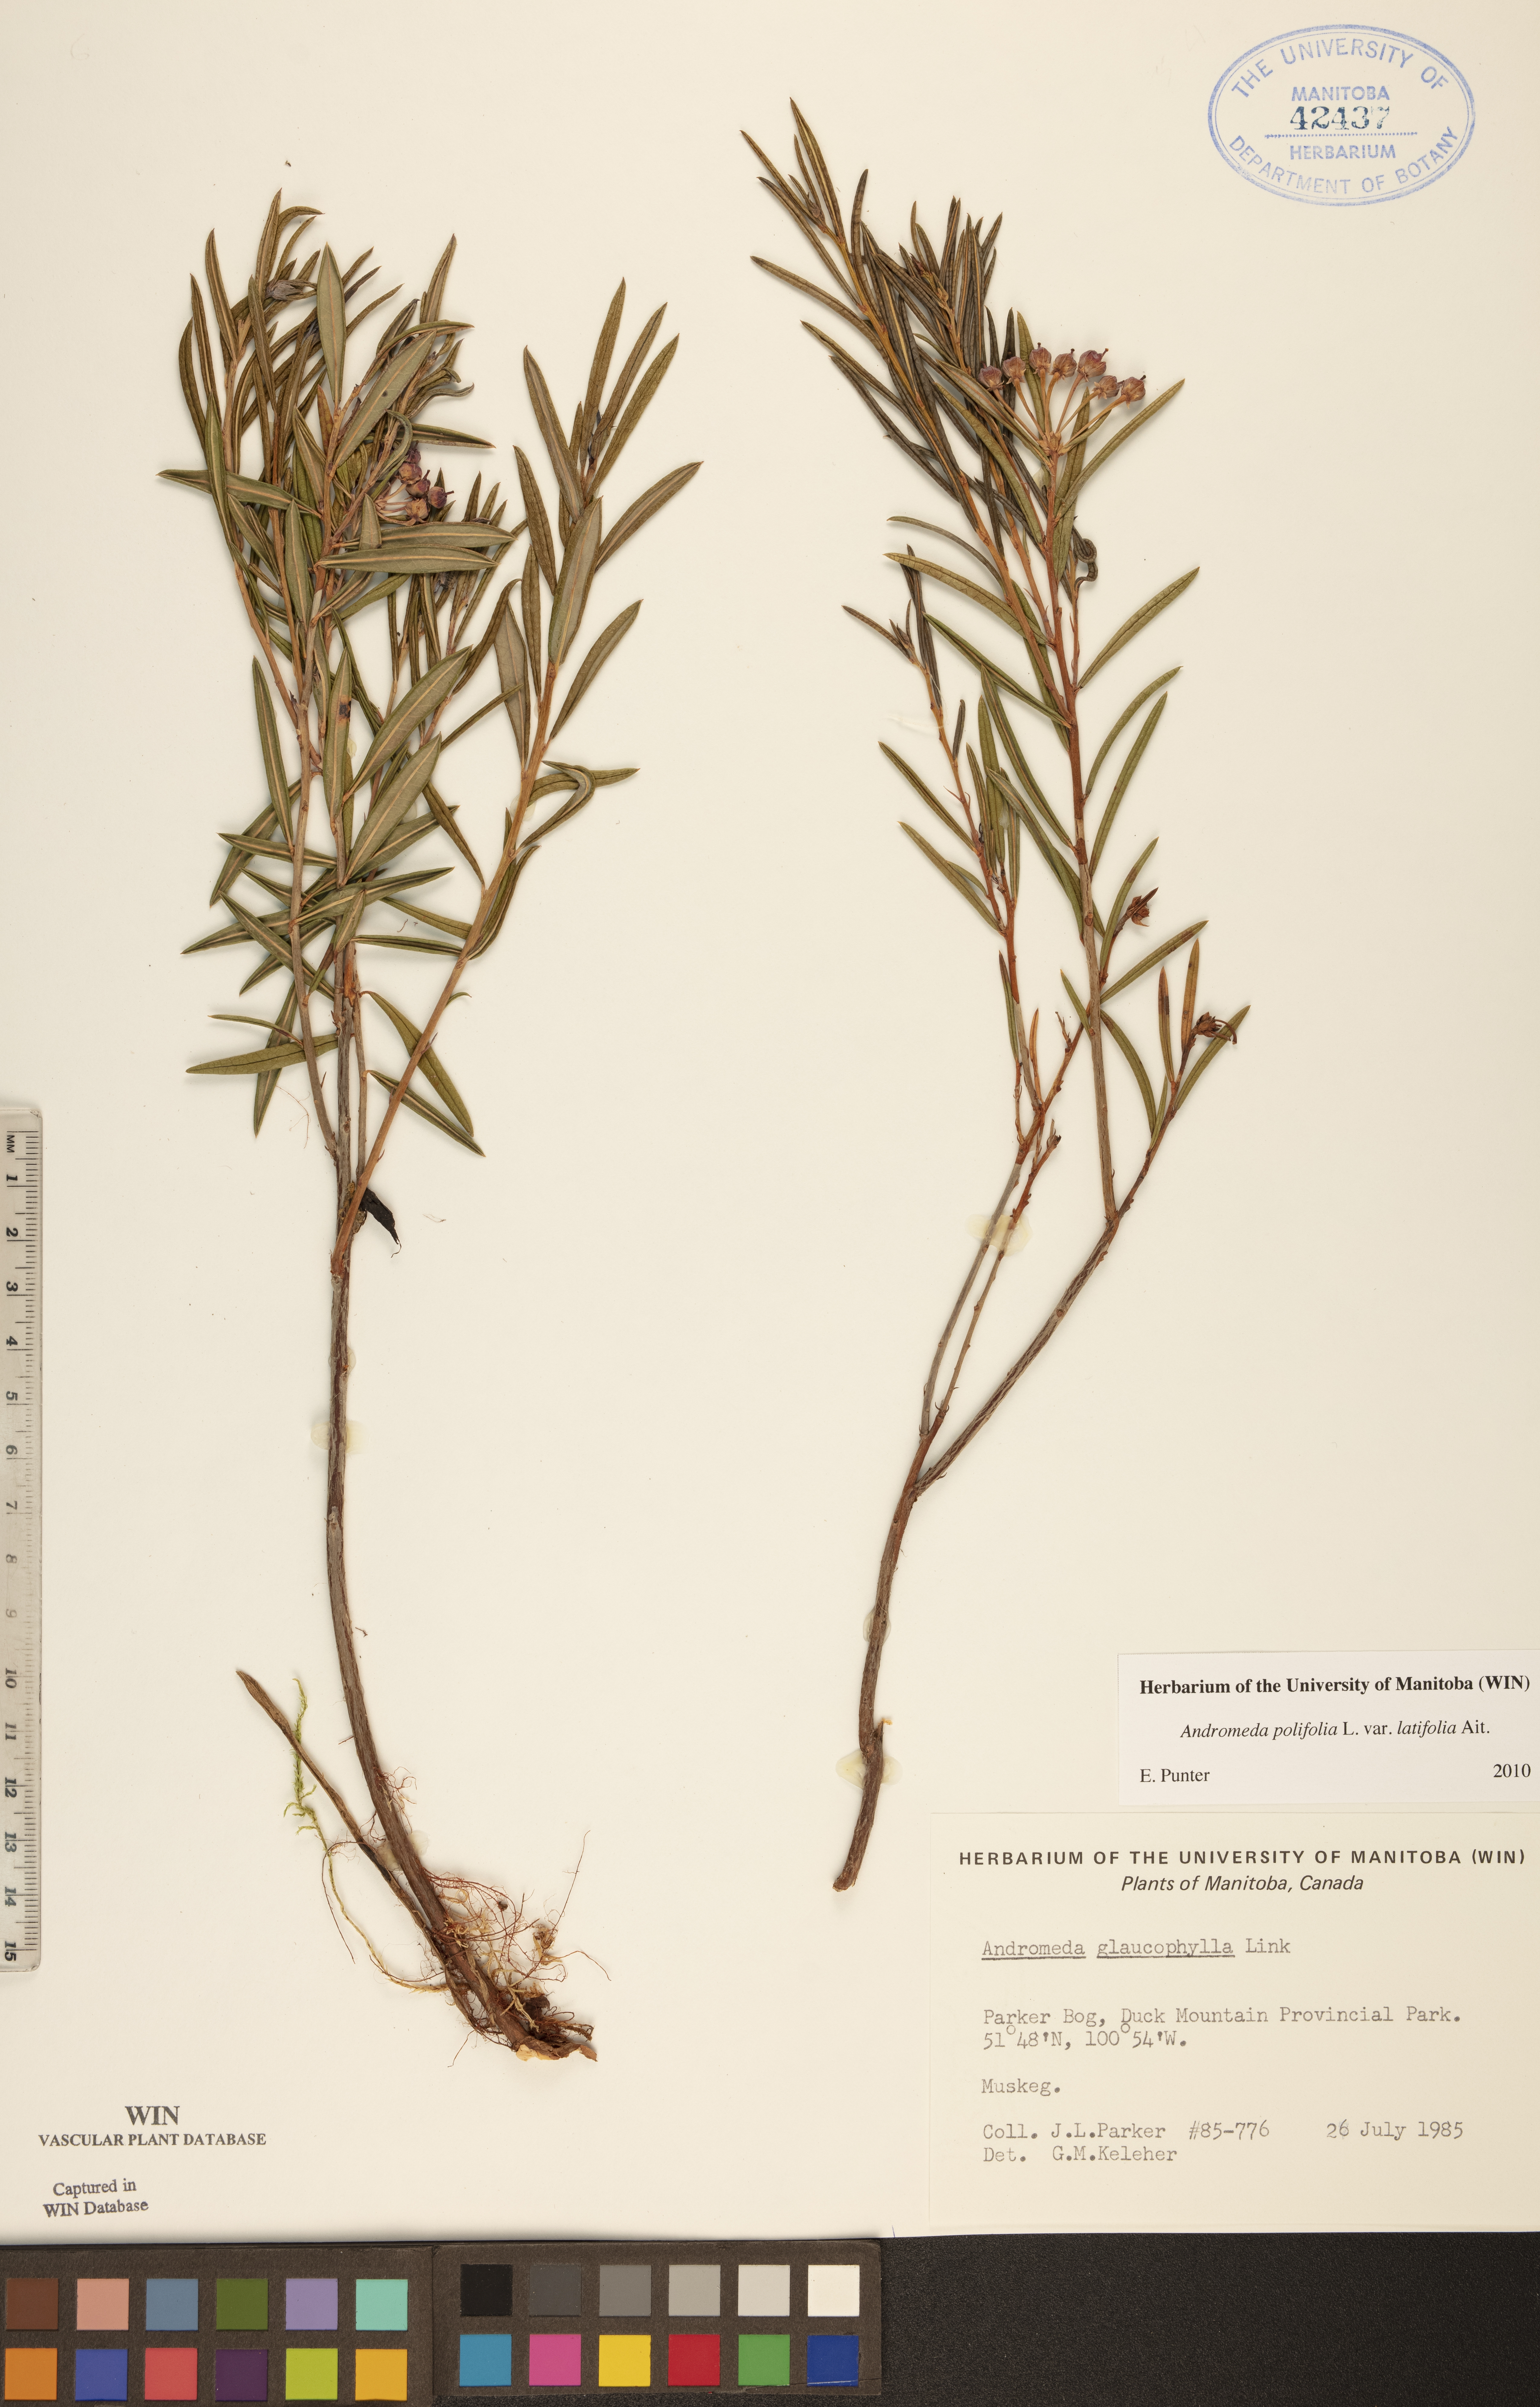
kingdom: Plantae
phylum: Tracheophyta
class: Magnoliopsida
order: Ericales
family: Ericaceae
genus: Andromeda
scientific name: Andromeda polifolia
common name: Bog-rosemary
